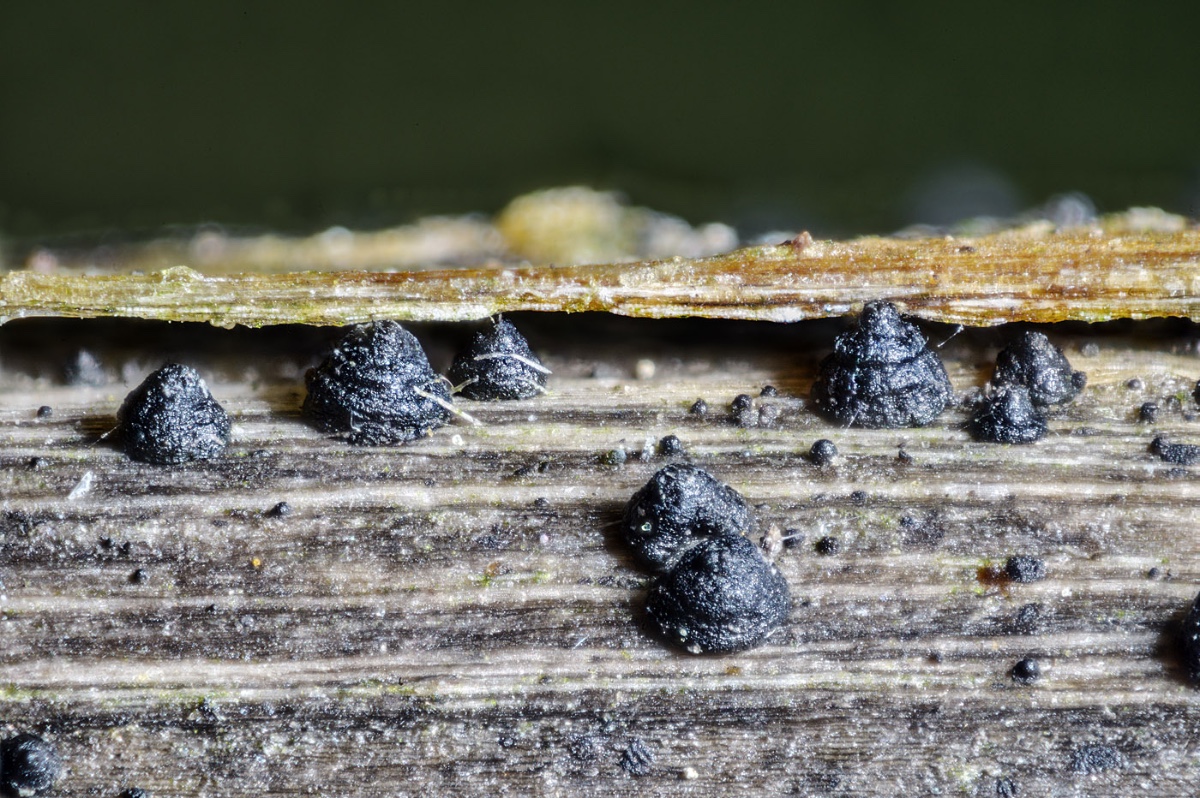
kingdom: Fungi
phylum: Ascomycota
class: Dothideomycetes
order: Pleosporales
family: Leptosphaeriaceae
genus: Leptosphaeria
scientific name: Leptosphaeria doliolum
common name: skærm-kulkegle
